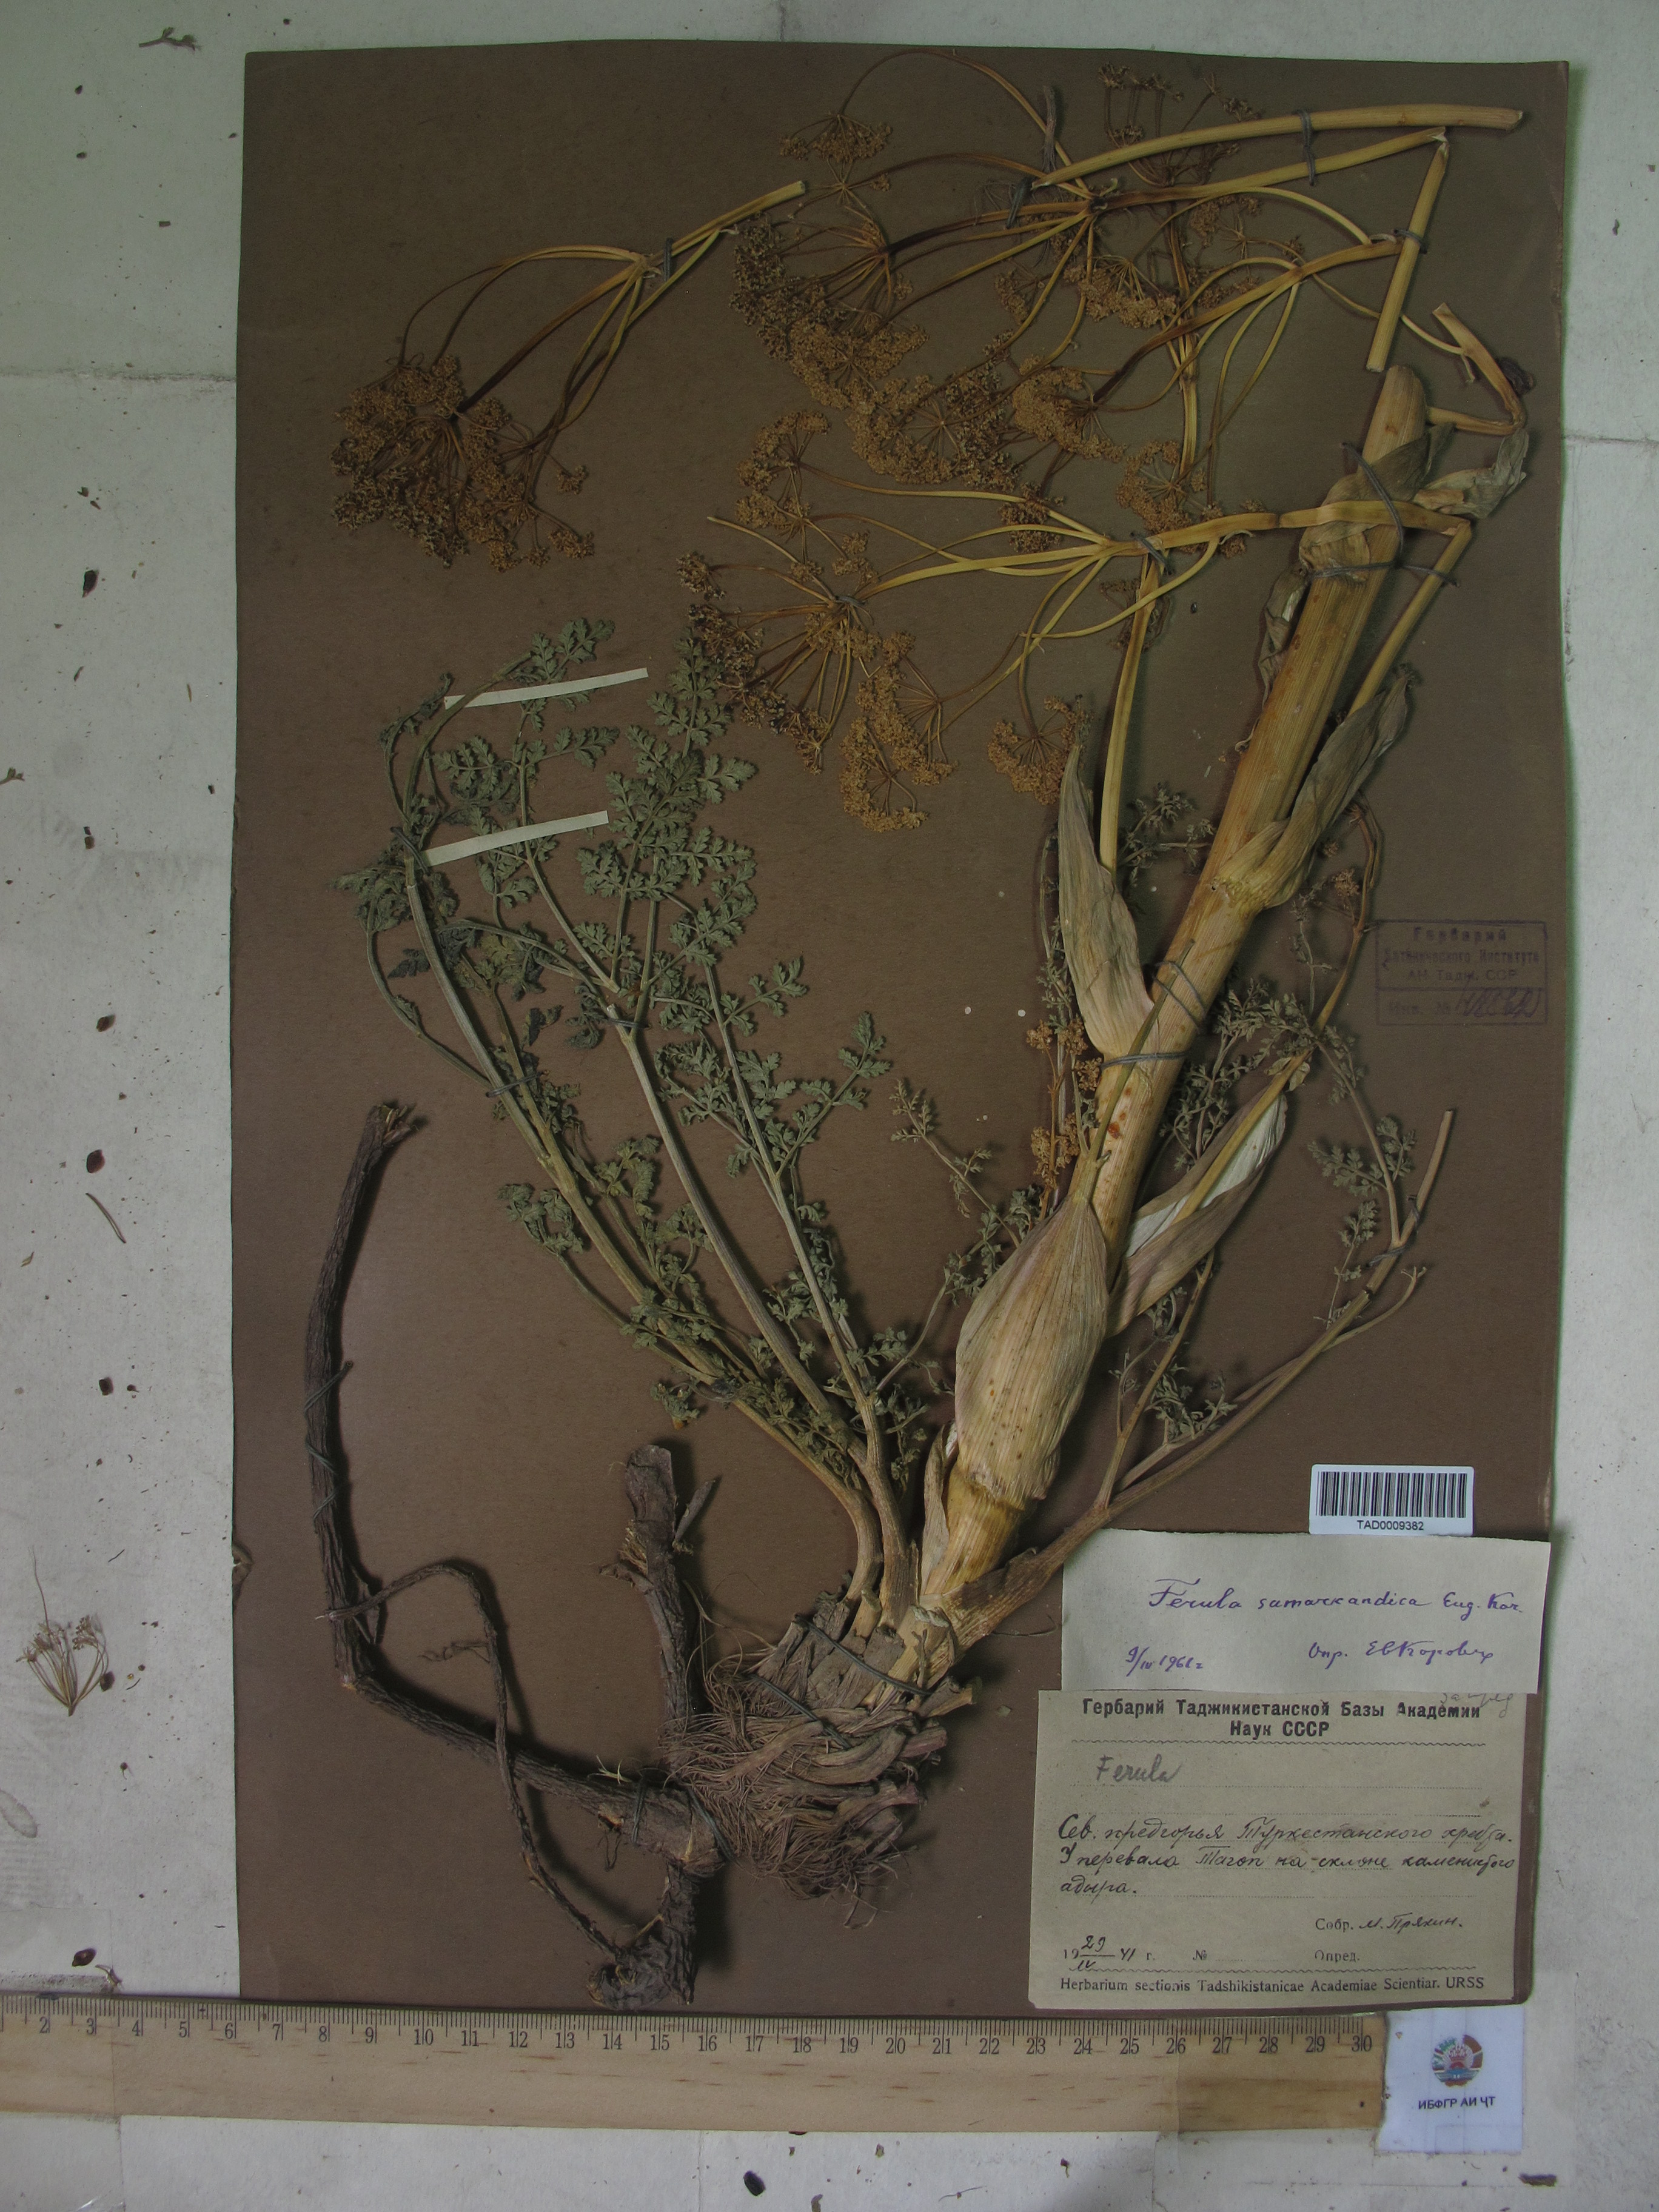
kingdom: Plantae
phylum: Tracheophyta
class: Magnoliopsida
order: Apiales
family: Apiaceae
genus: Ferula
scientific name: Ferula samarkandica
